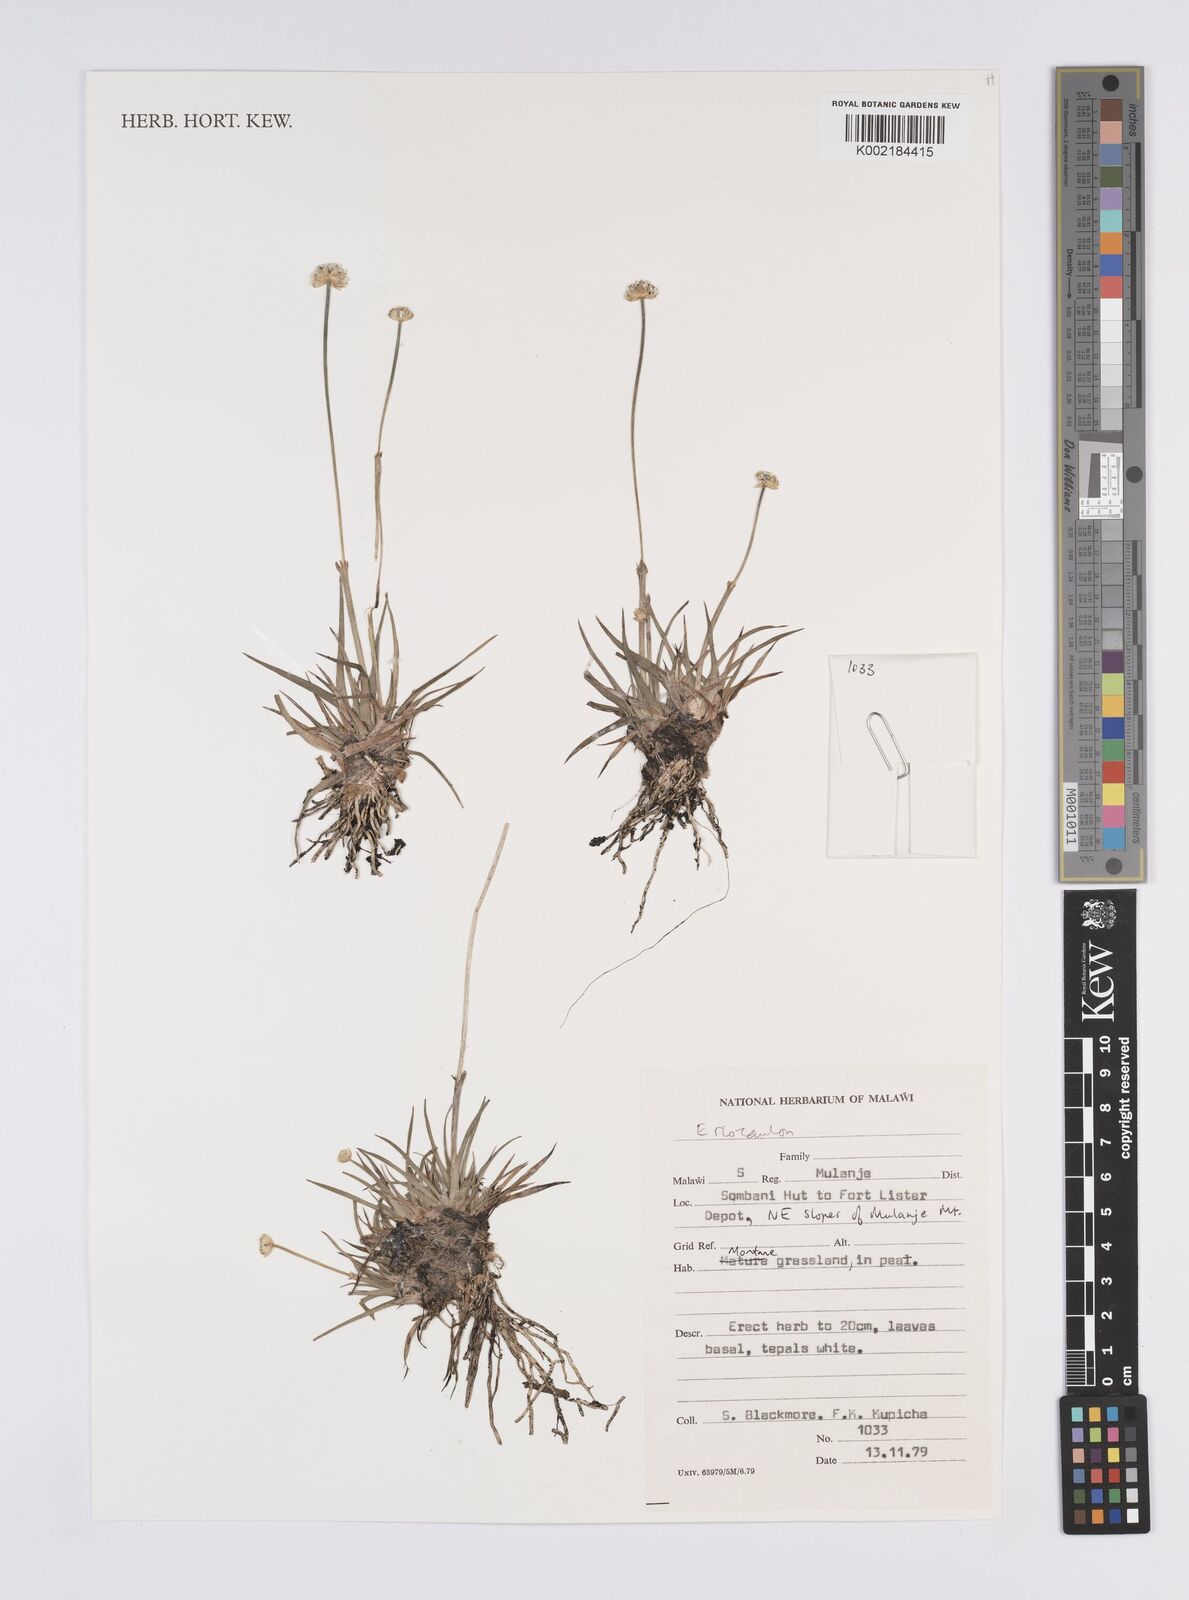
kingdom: Plantae
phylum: Tracheophyta
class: Liliopsida
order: Poales
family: Eriocaulaceae
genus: Eriocaulon
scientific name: Eriocaulon
